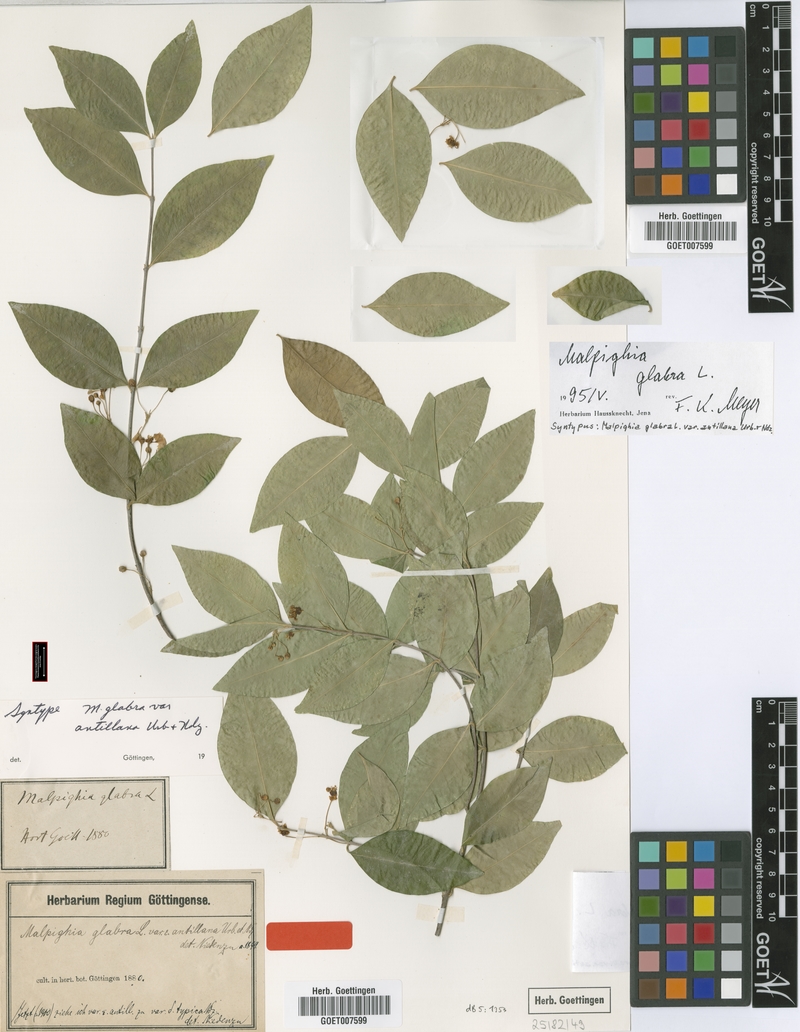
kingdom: Plantae
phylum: Tracheophyta
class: Magnoliopsida
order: Malpighiales
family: Malpighiaceae
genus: Malpighia
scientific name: Malpighia glabra
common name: Barbados cherry
